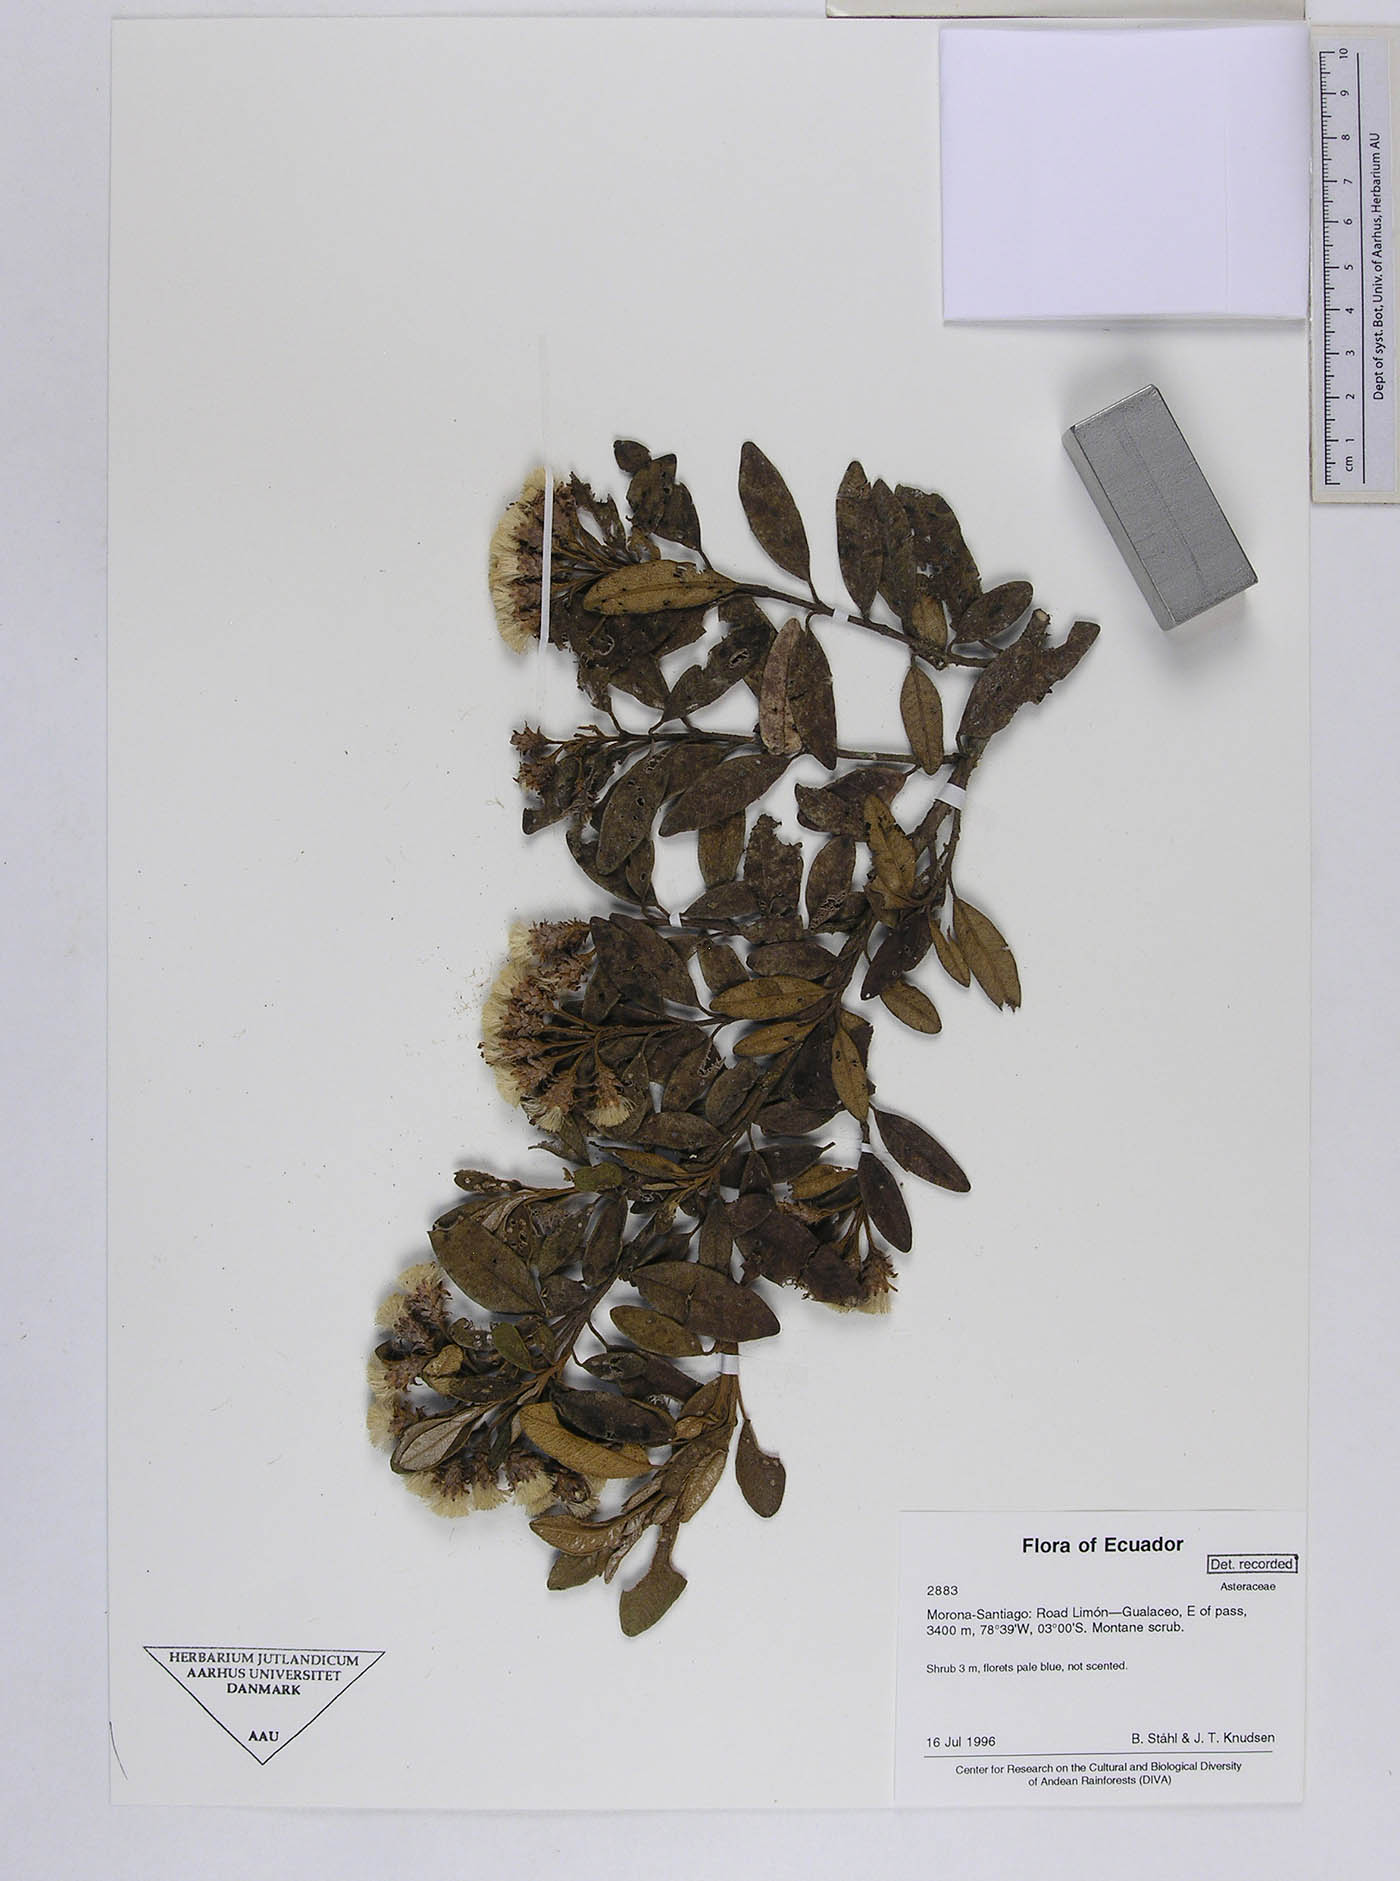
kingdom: Plantae
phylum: Tracheophyta
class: Magnoliopsida
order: Asterales
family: Asteraceae
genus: Joseanthus
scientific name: Joseanthus cuatrecasasii
